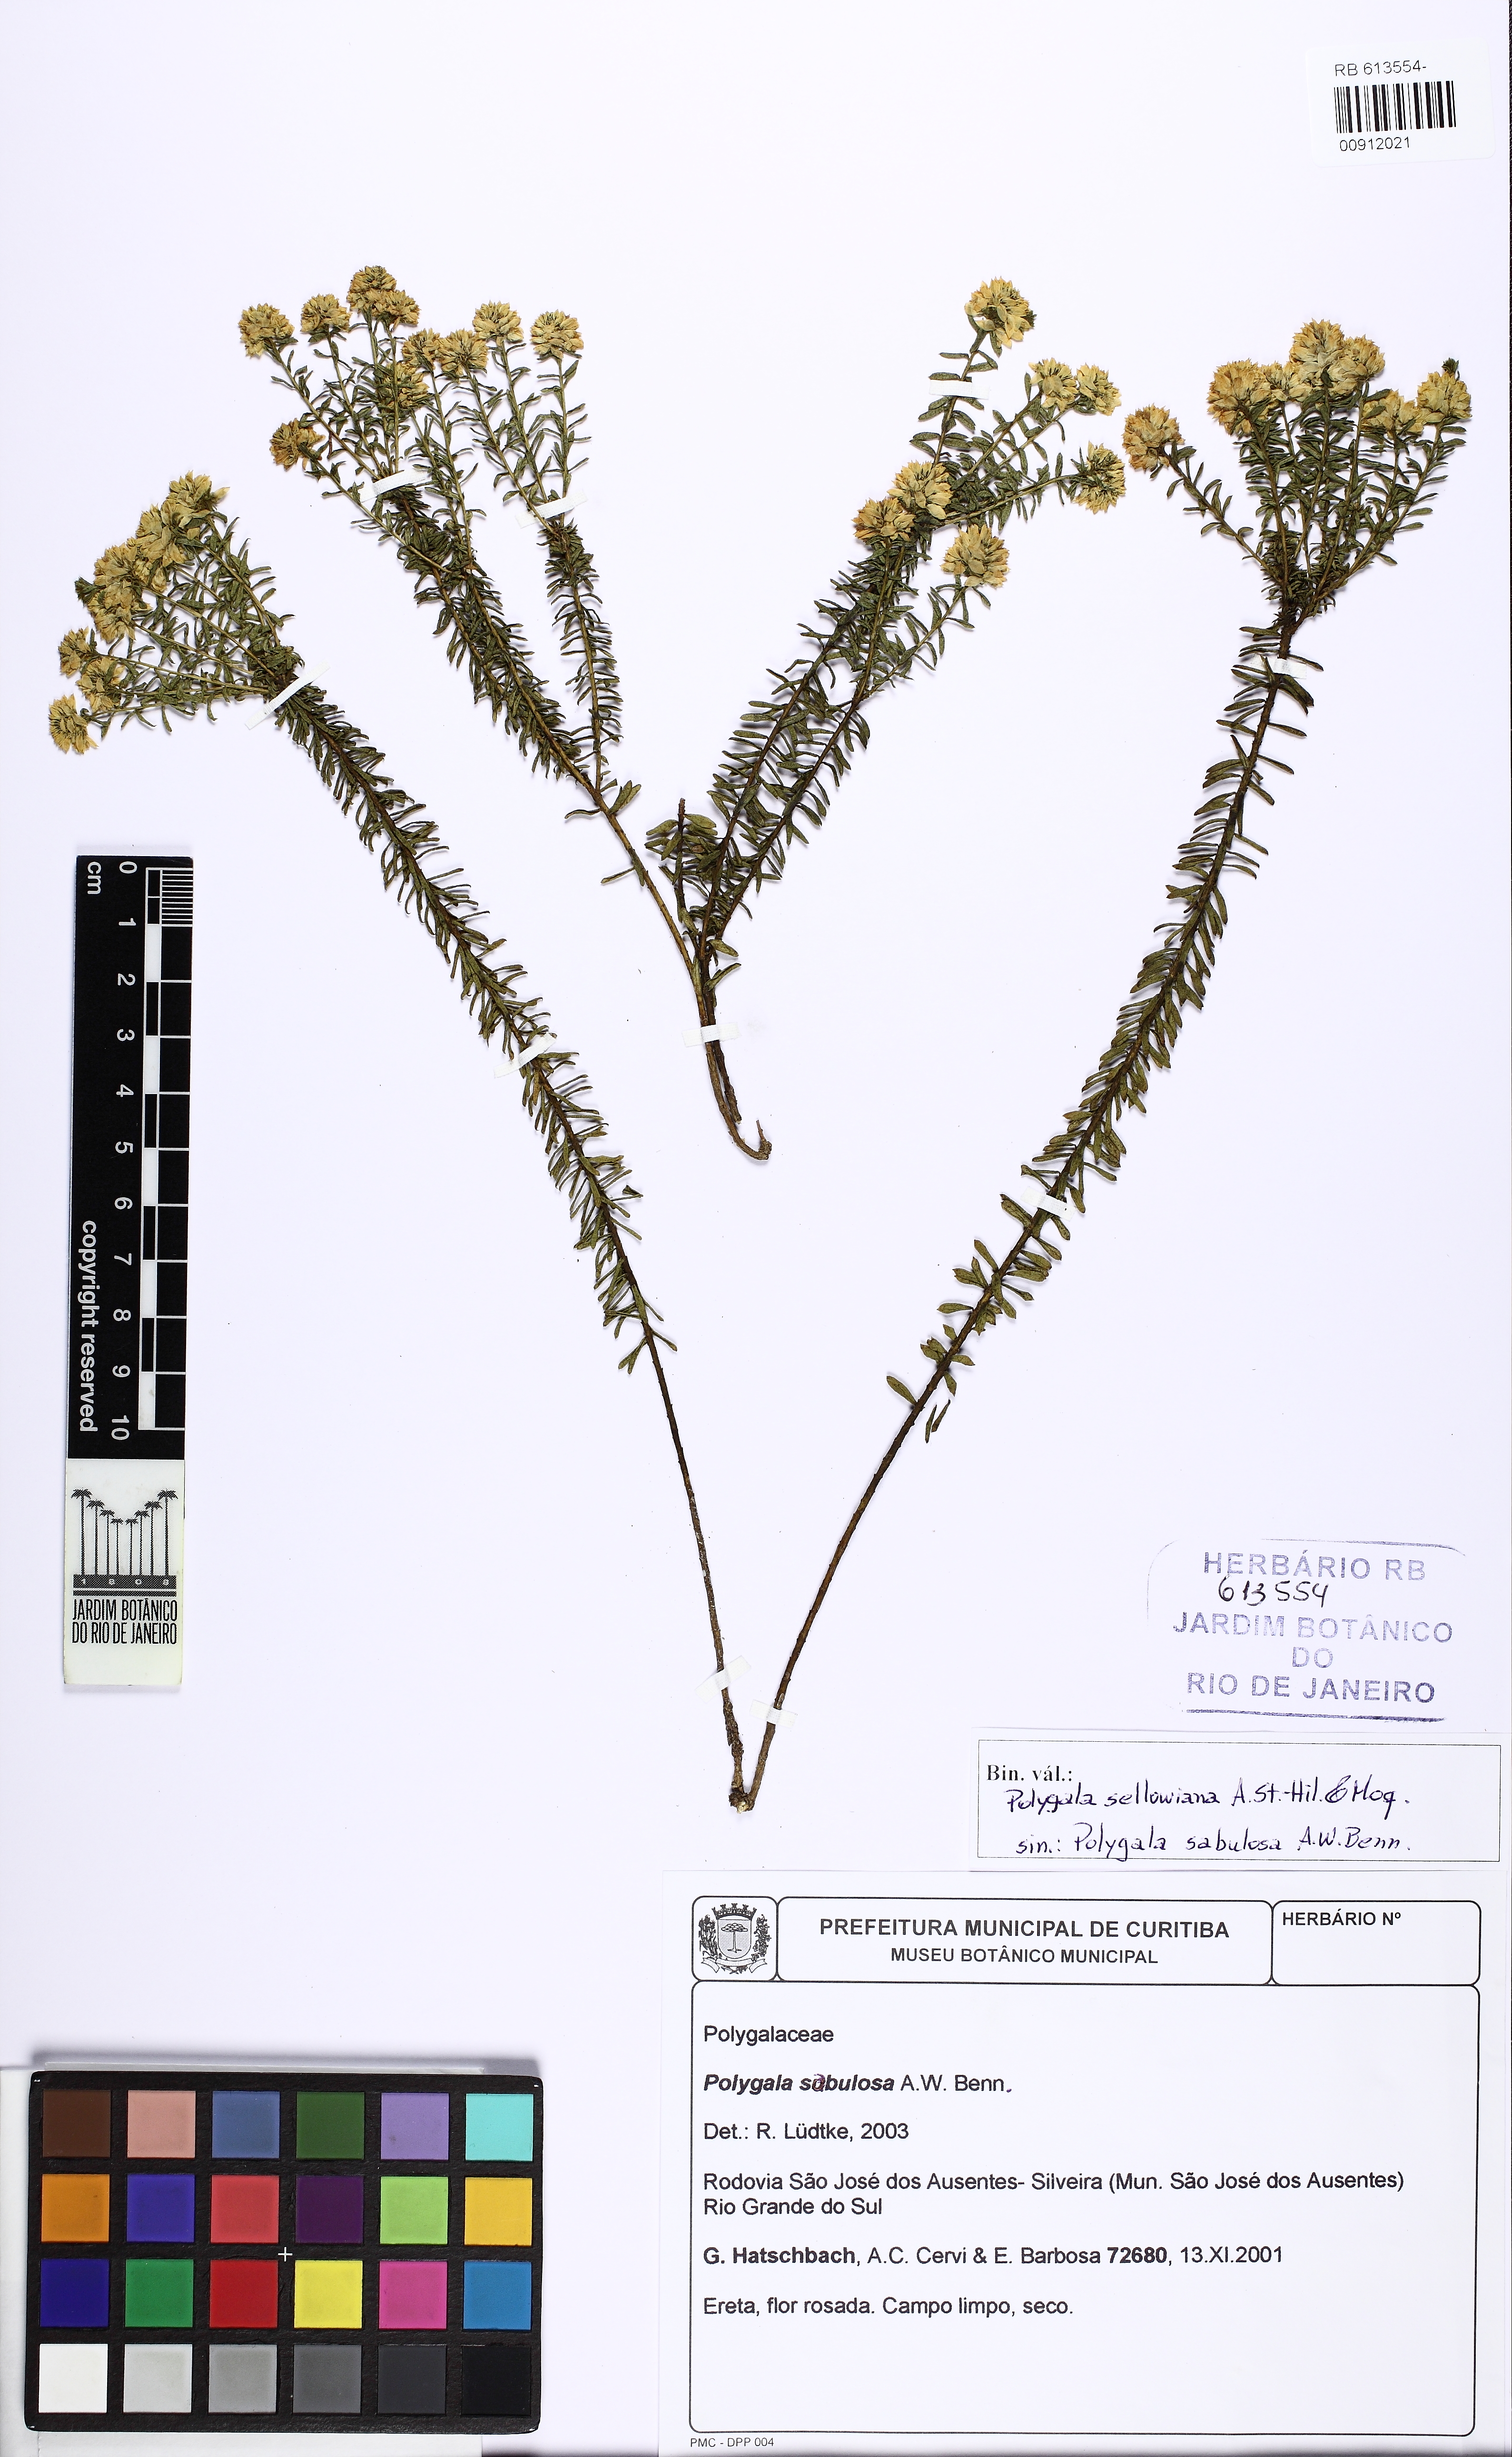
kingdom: Plantae
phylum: Tracheophyta
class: Magnoliopsida
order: Fabales
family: Polygalaceae
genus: Polygala
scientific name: Polygala sellowiana
